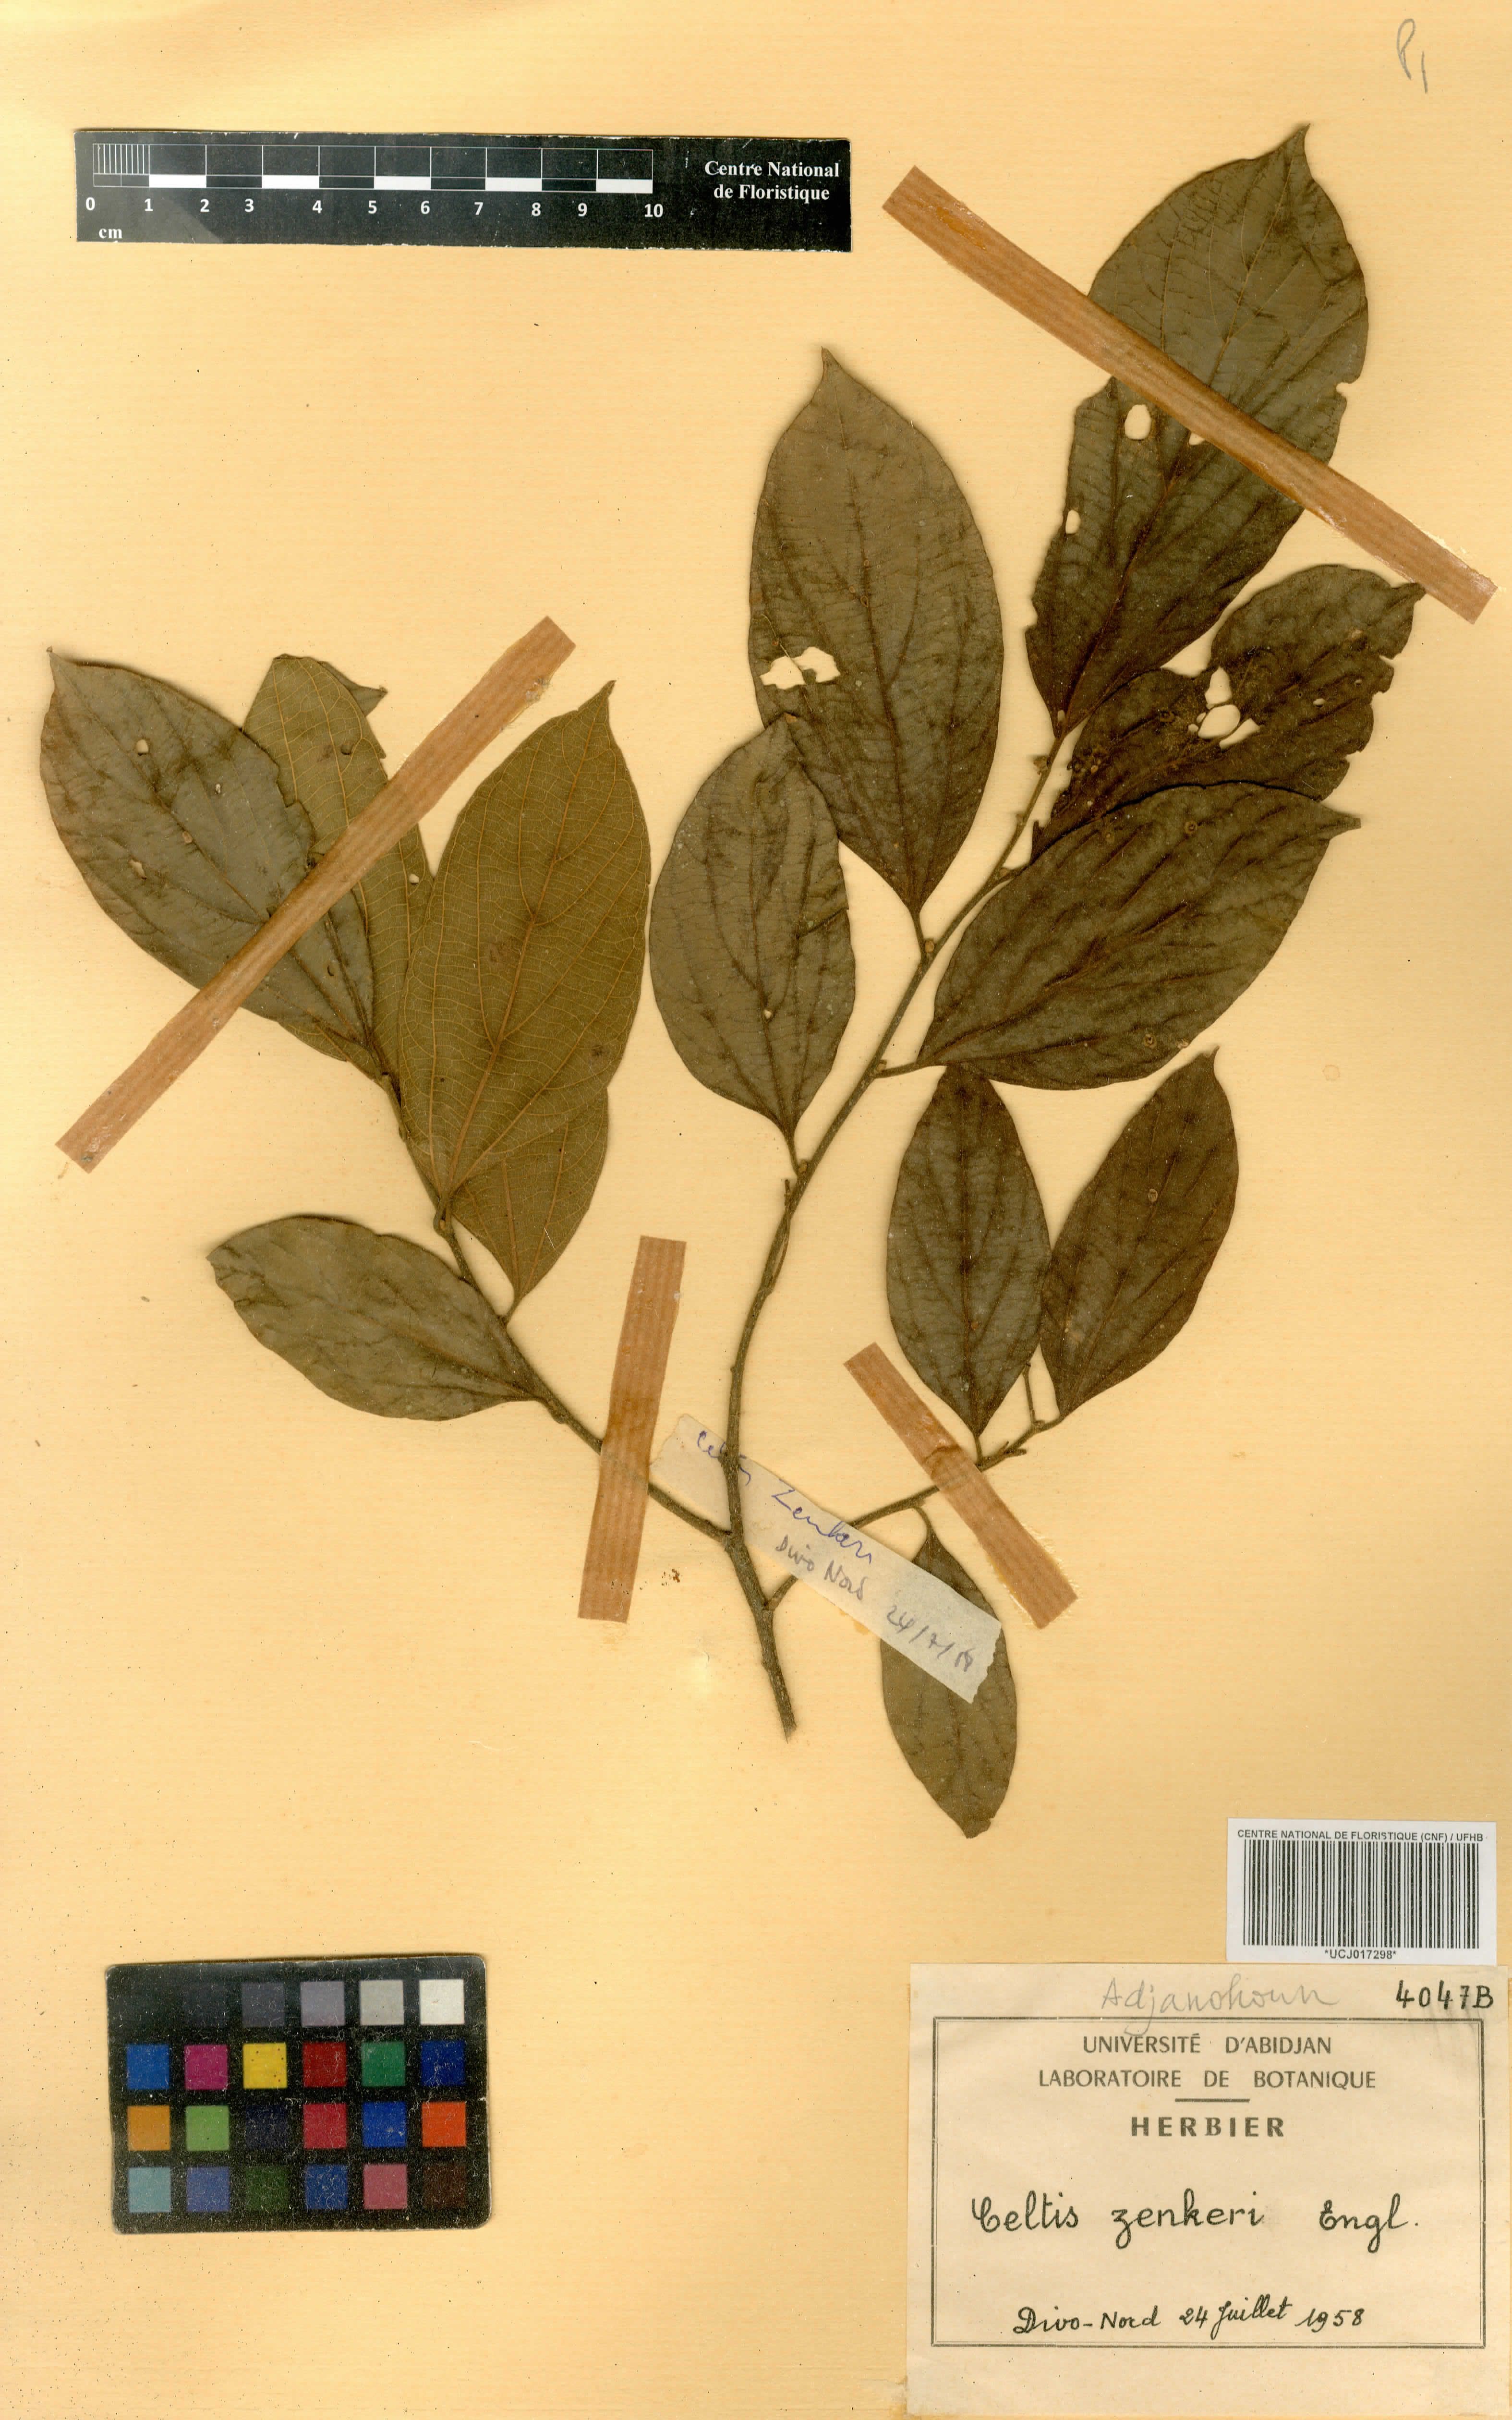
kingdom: Plantae
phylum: Tracheophyta
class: Magnoliopsida
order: Rosales
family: Cannabaceae
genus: Celtis
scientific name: Celtis zenkeri
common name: African celtis
